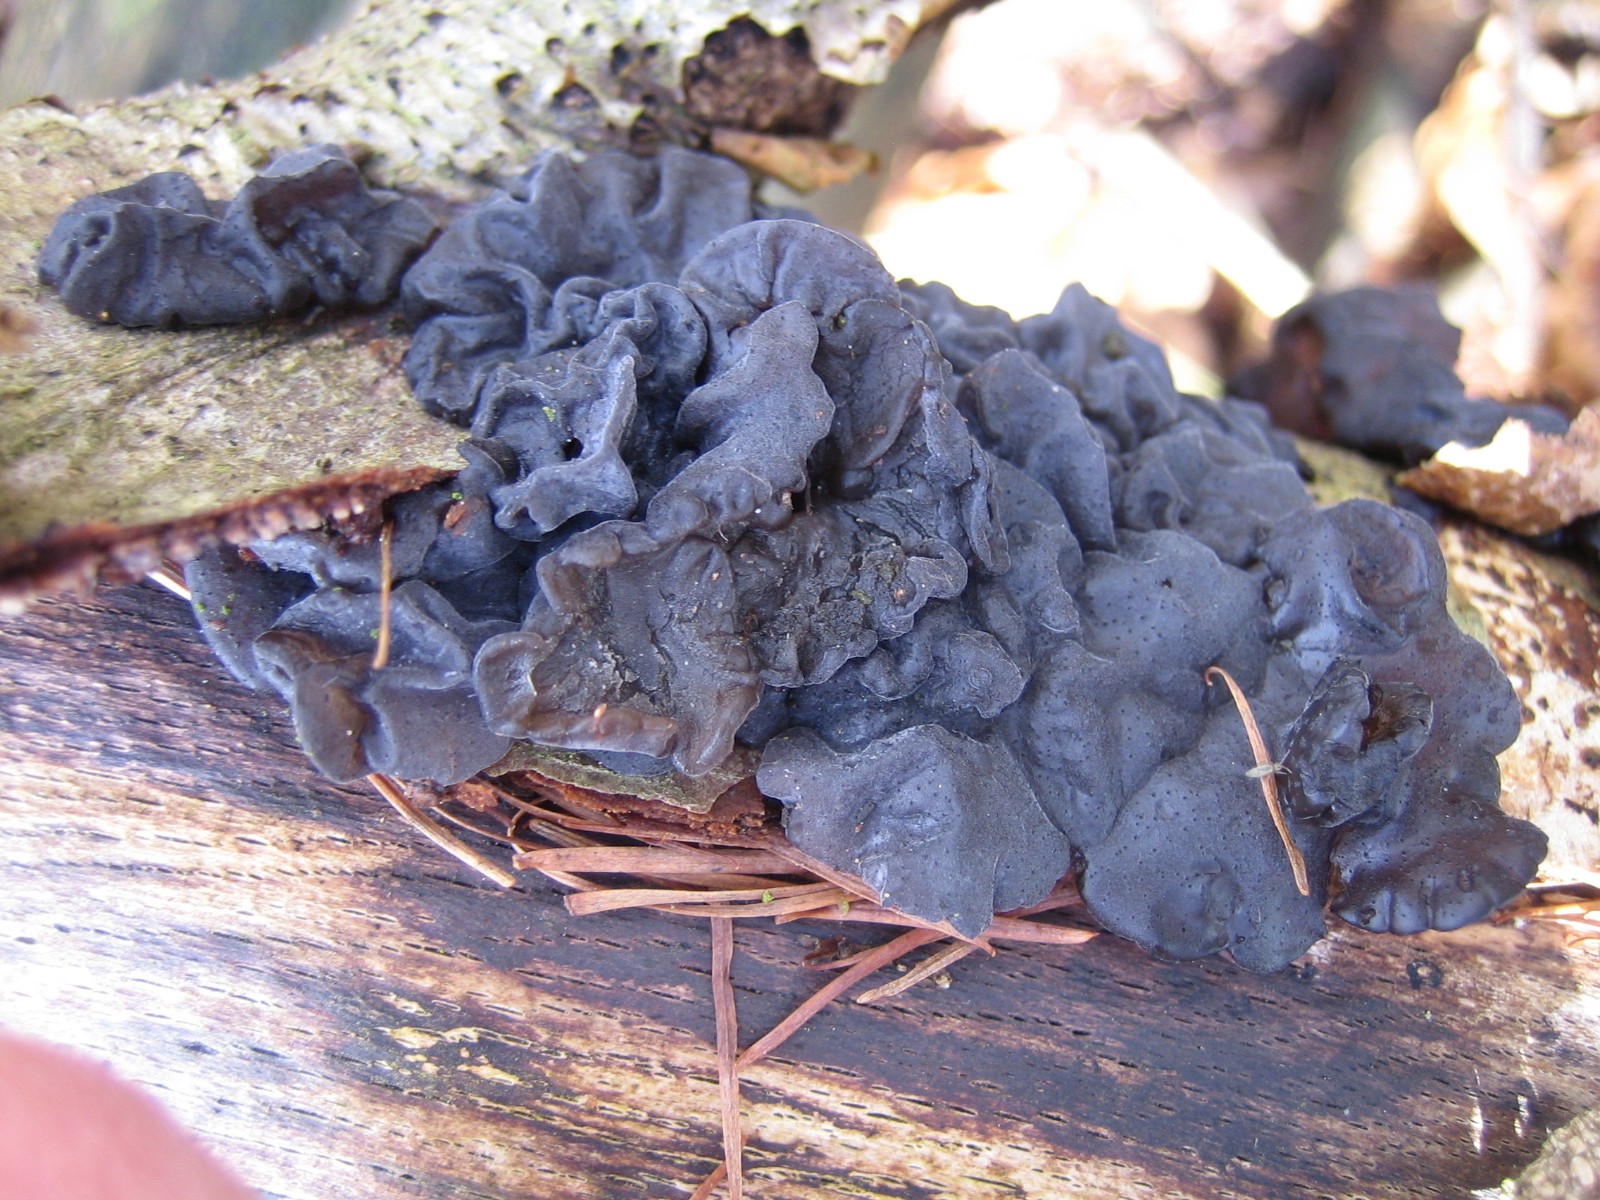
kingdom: Fungi
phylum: Basidiomycota
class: Agaricomycetes
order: Auriculariales
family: Auriculariaceae
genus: Exidia
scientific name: Exidia nigricans
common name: almindelig bævretop
